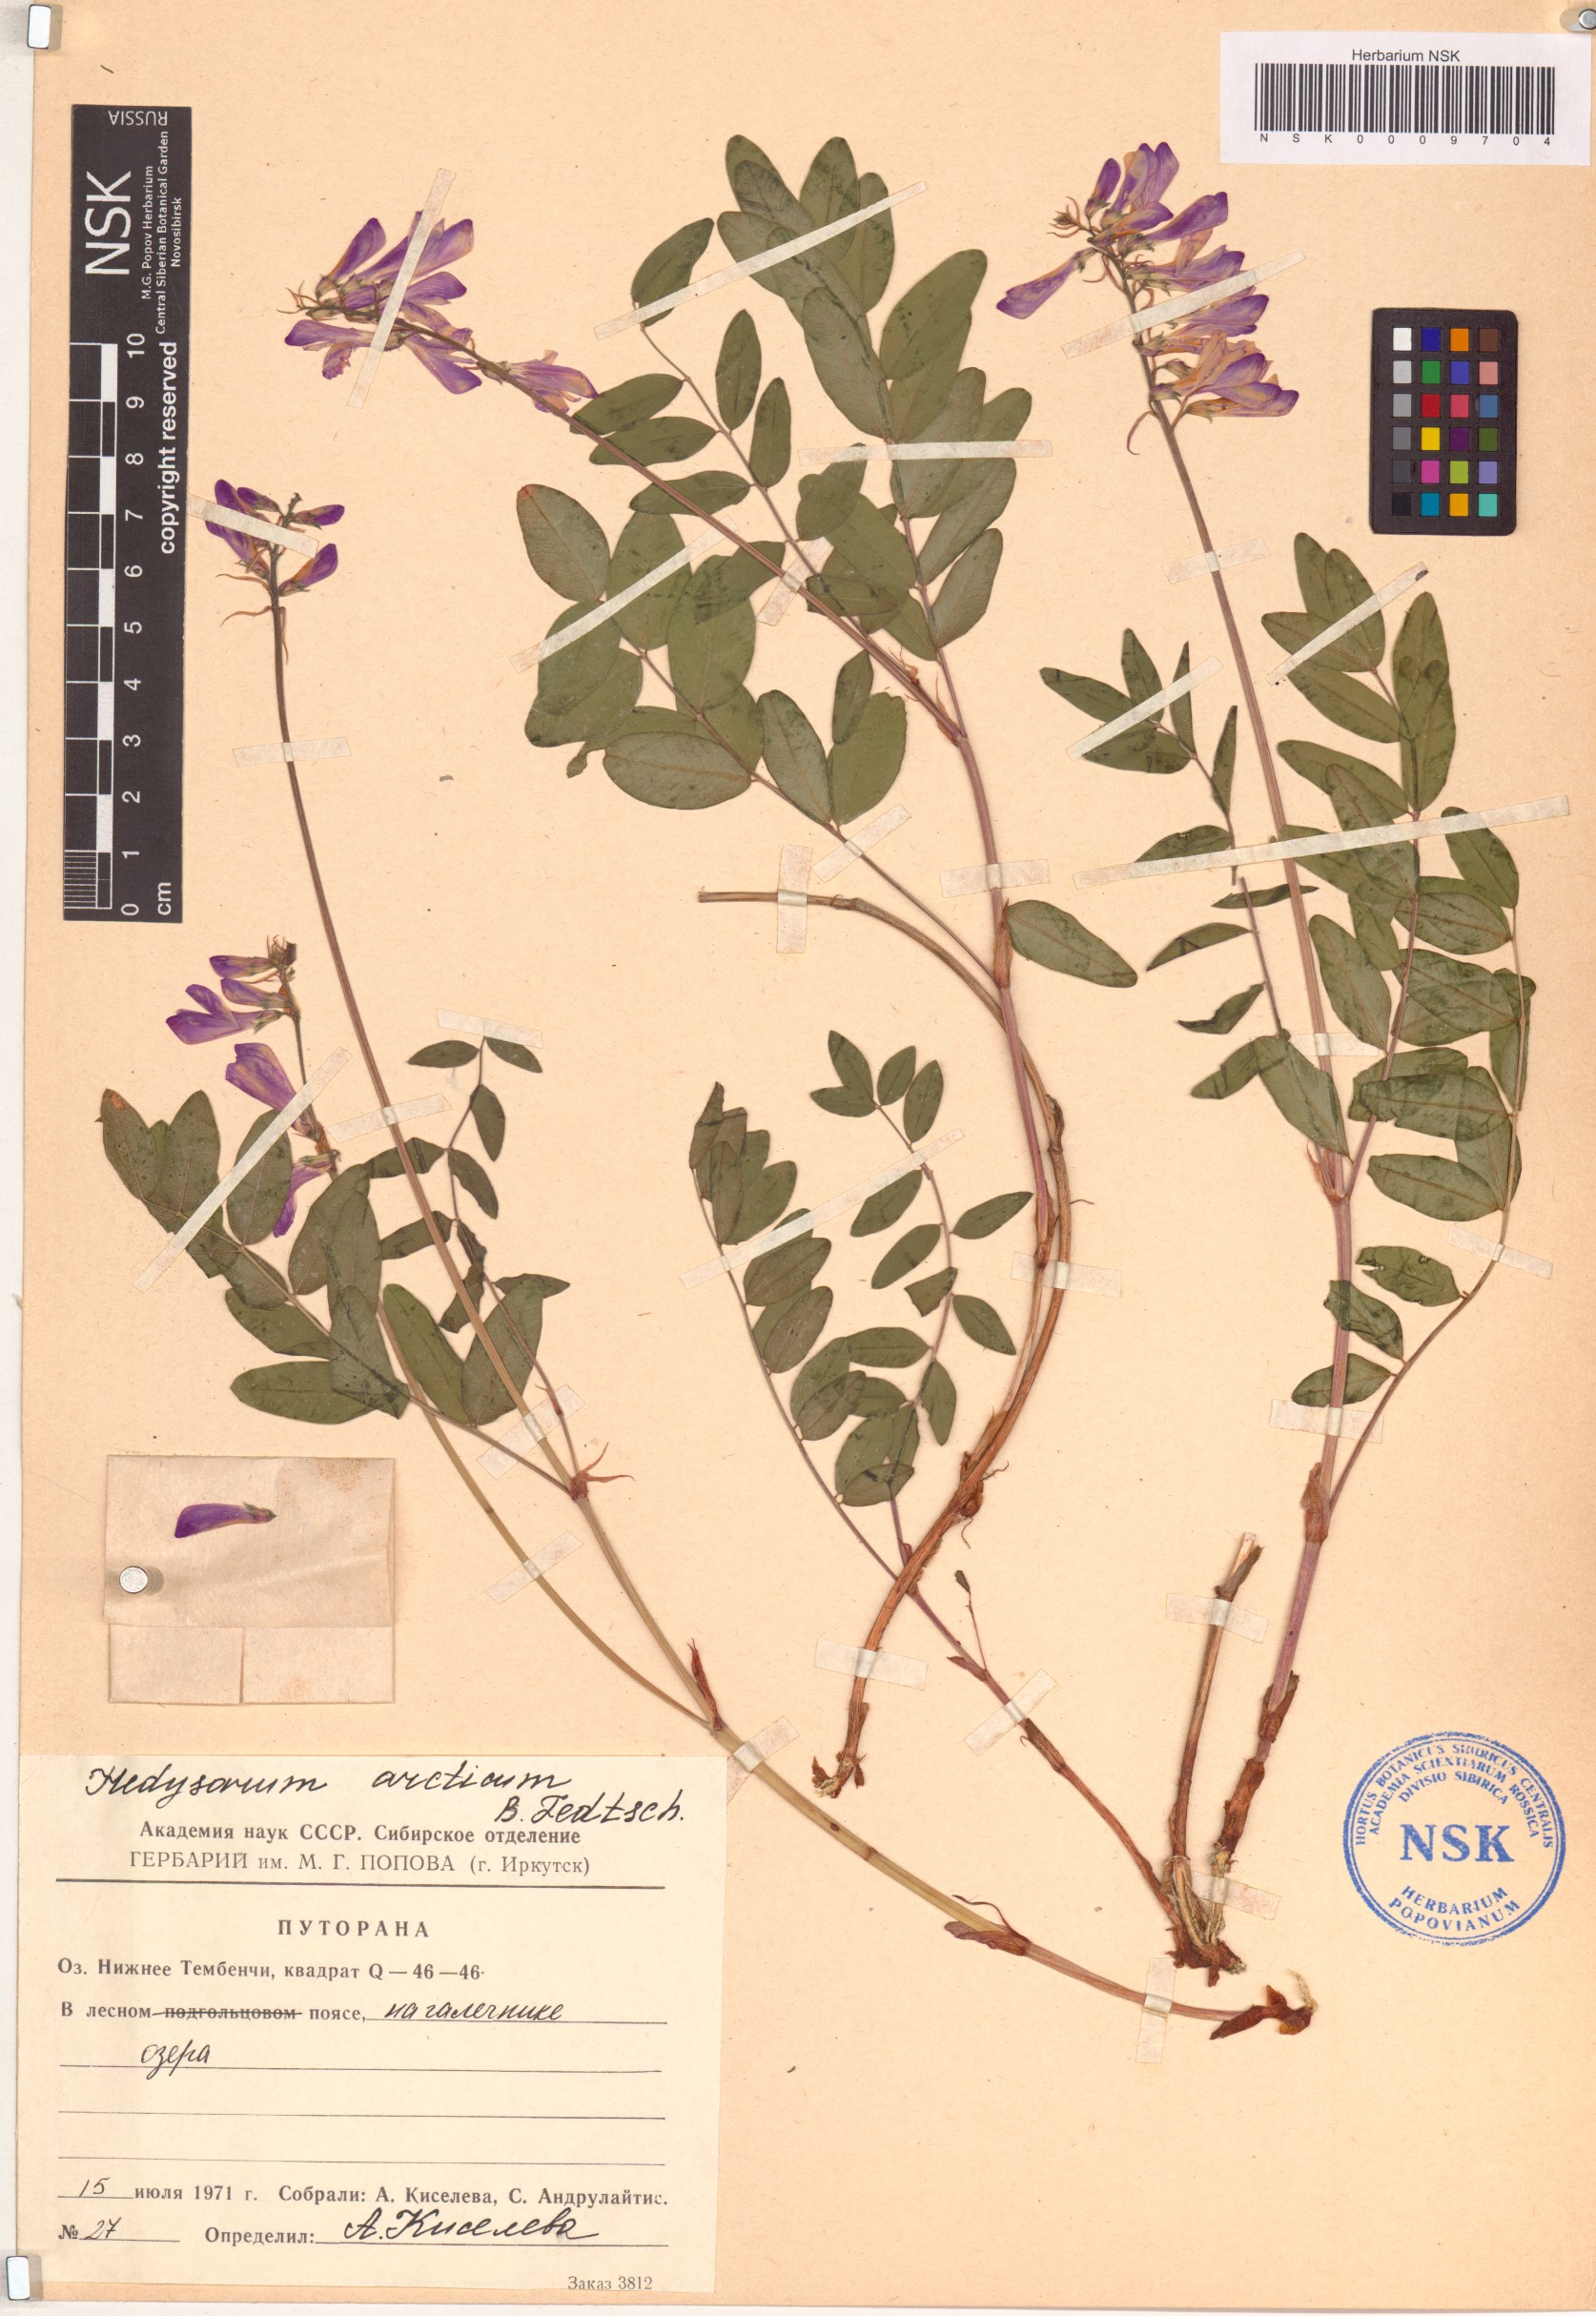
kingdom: Plantae
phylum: Tracheophyta
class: Magnoliopsida
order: Fabales
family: Fabaceae
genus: Hedysarum
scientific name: Hedysarum hedysaroides
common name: Alpine french-honeysuckle
